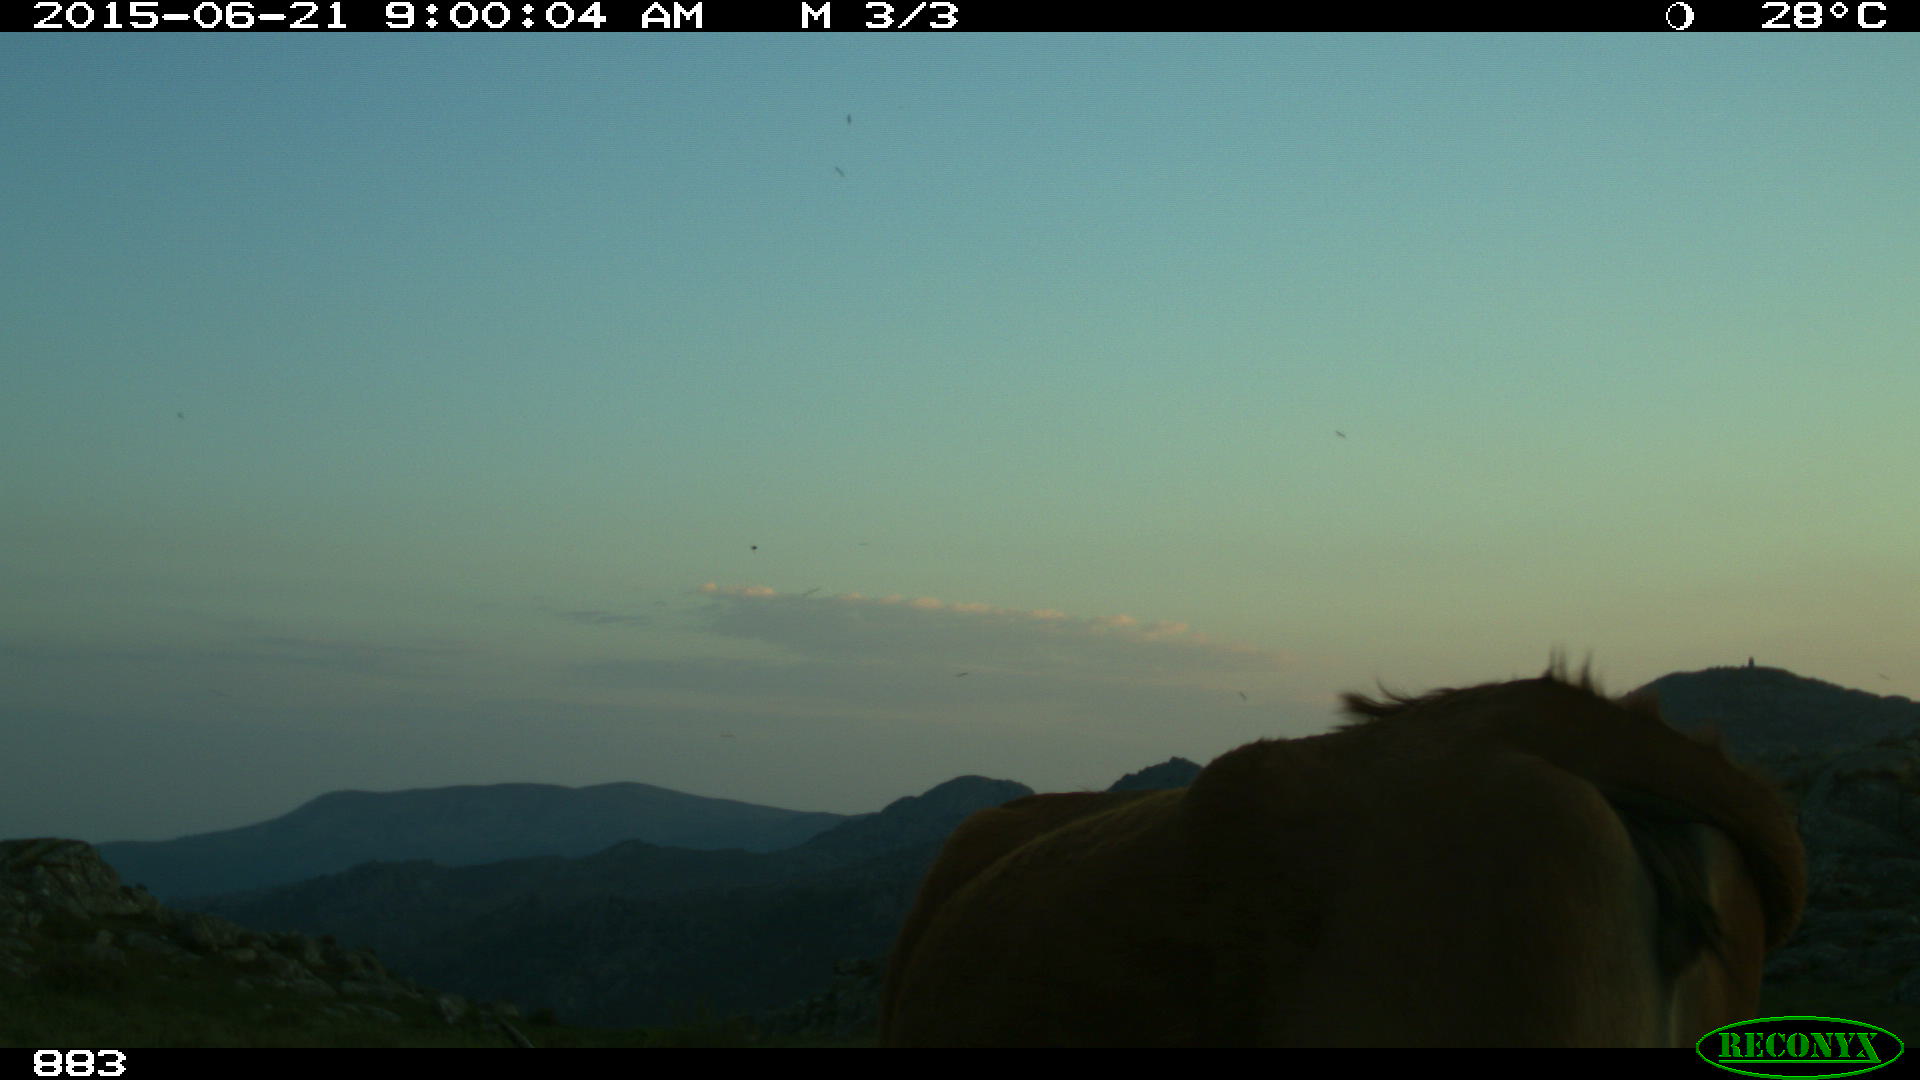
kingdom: Animalia
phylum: Chordata
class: Mammalia
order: Artiodactyla
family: Bovidae
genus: Bos
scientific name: Bos taurus
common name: Domesticated cattle
